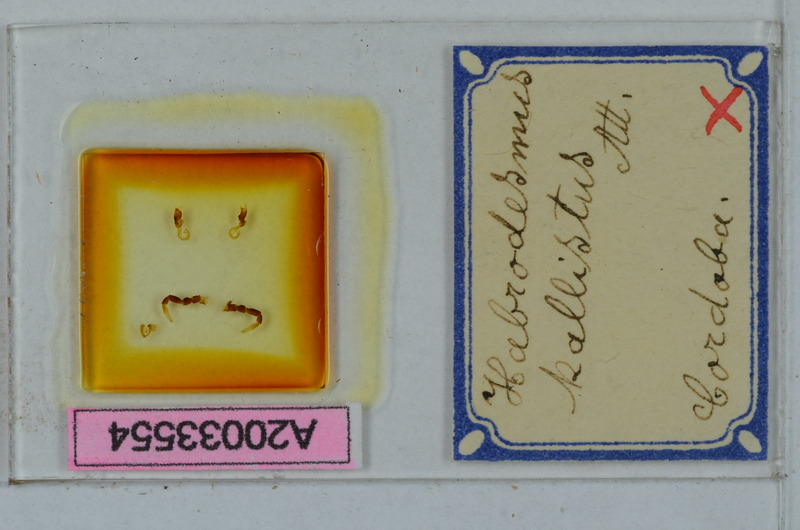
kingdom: Animalia
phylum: Arthropoda
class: Diplopoda
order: Polydesmida
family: Paradoxosomatidae
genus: Iulidesmus
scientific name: Iulidesmus kallistus
